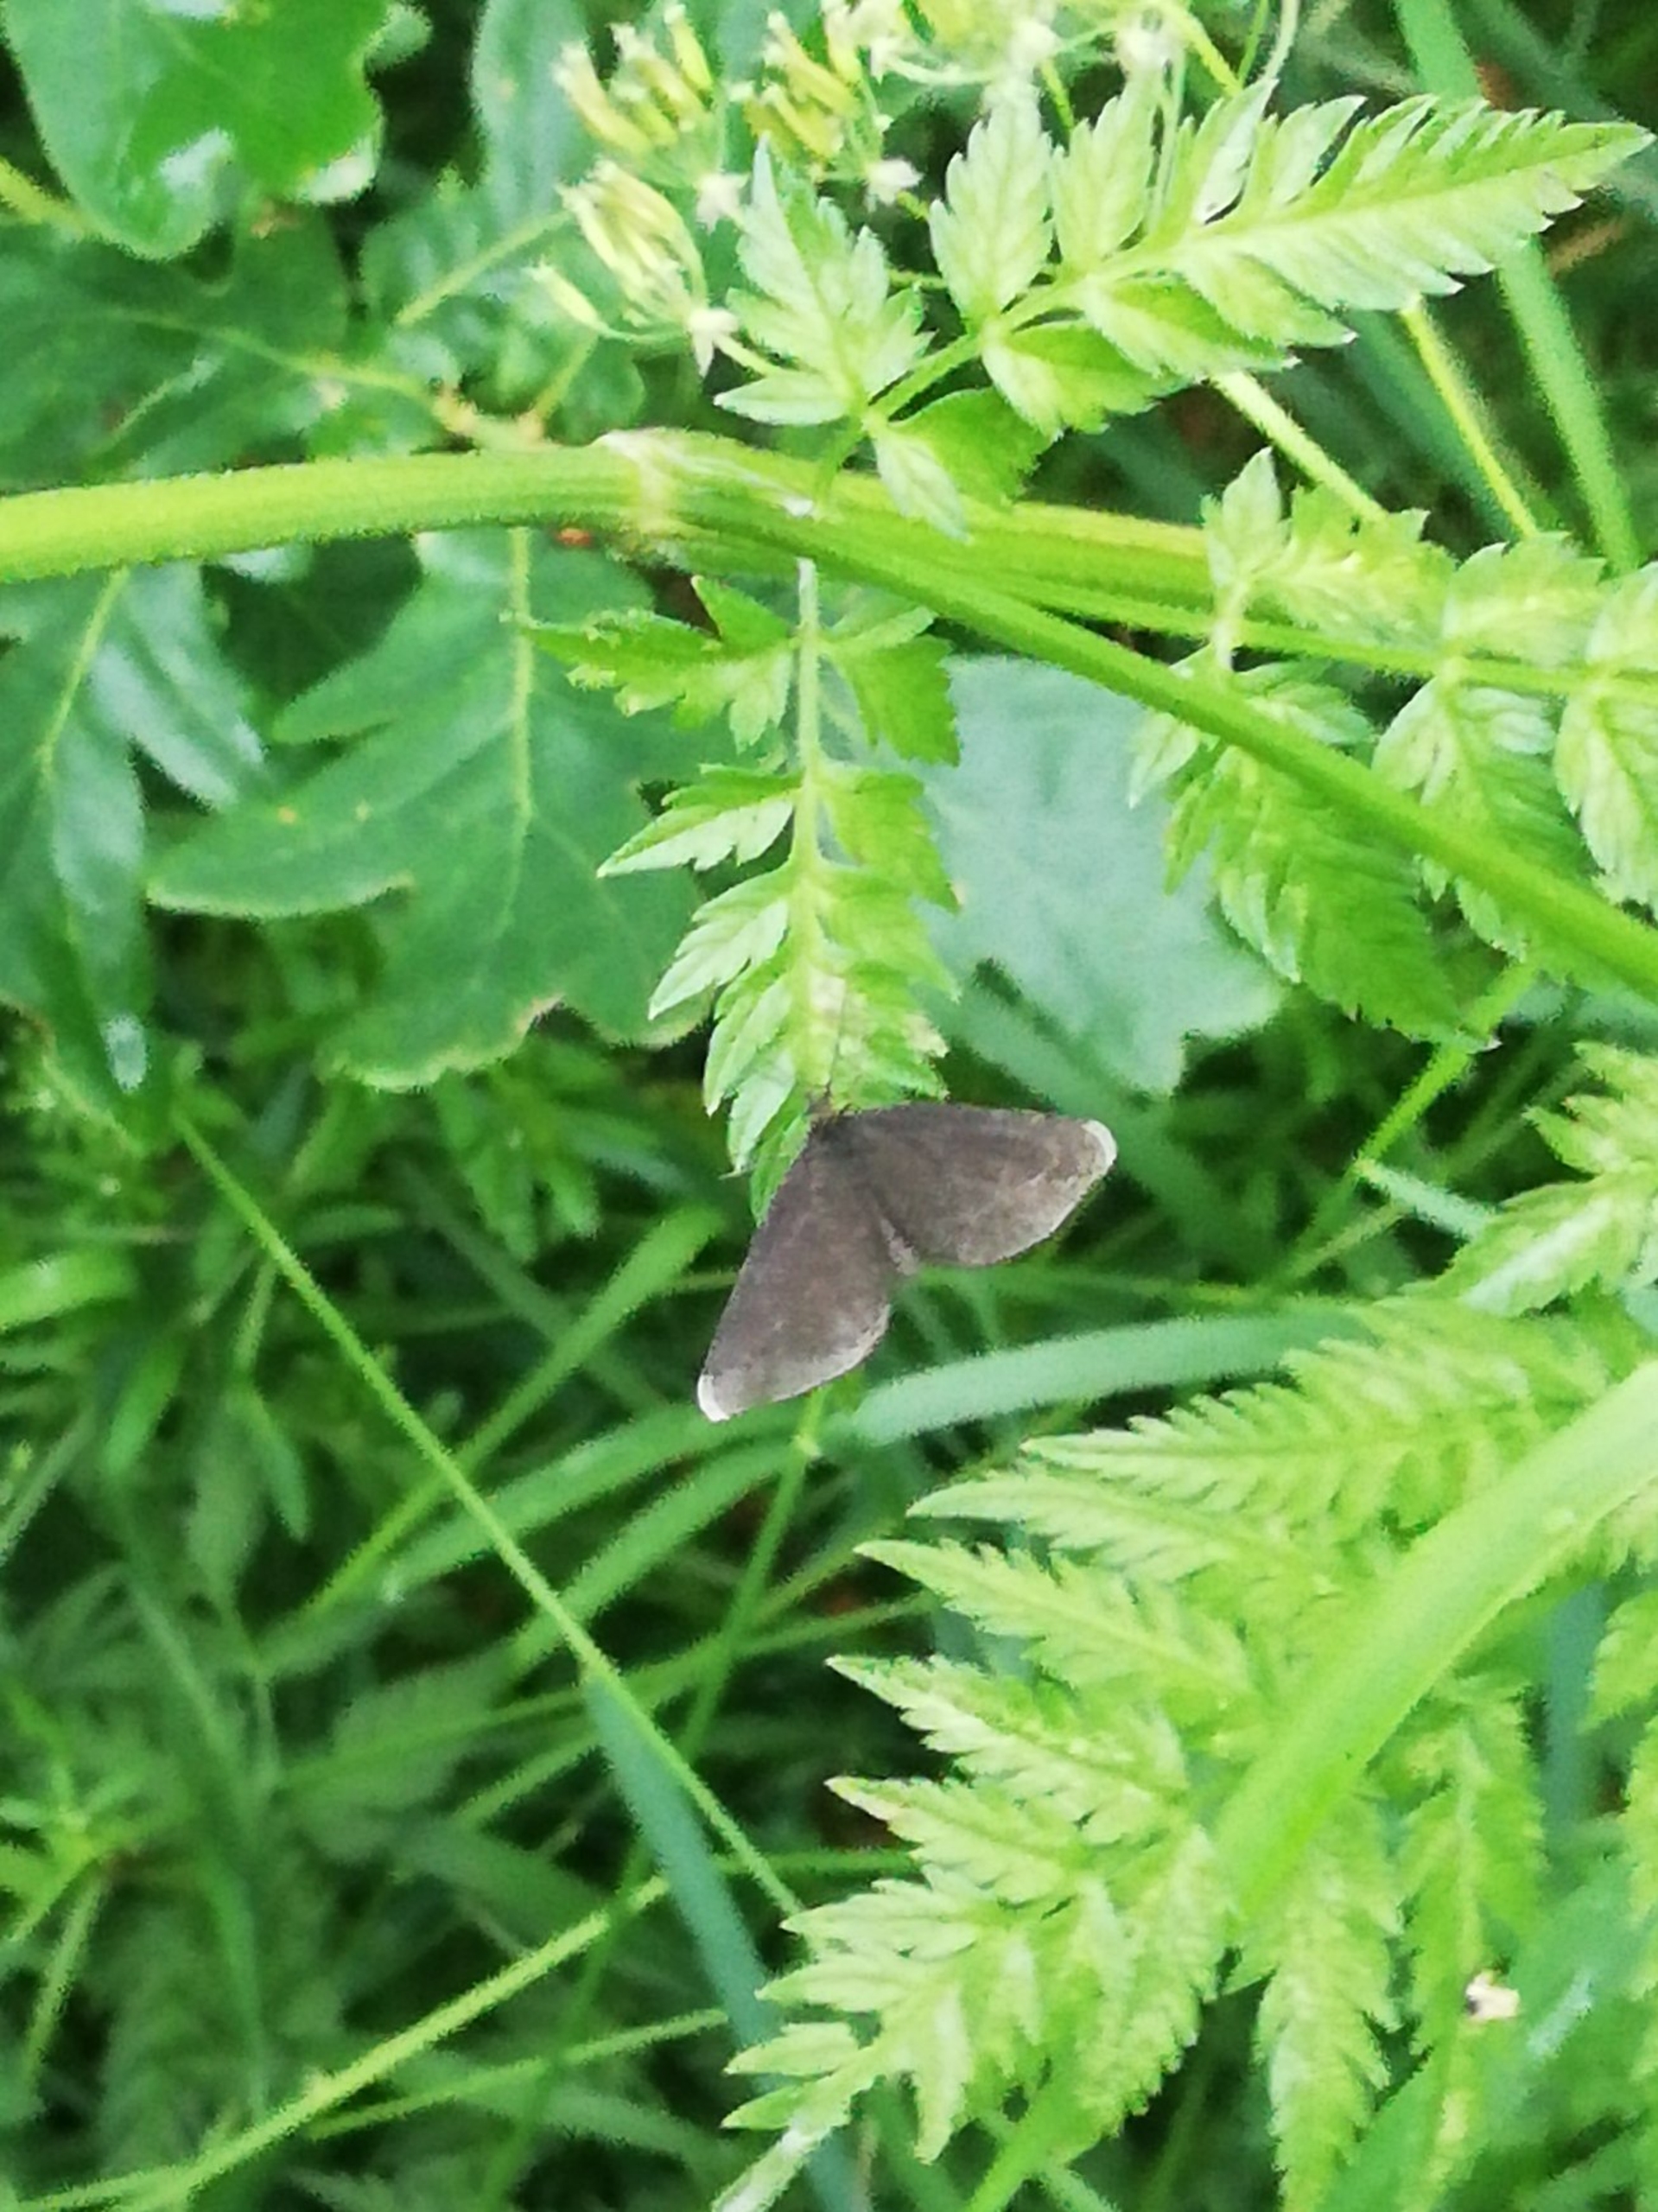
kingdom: Animalia
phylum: Arthropoda
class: Insecta
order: Lepidoptera
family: Geometridae
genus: Odezia
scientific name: Odezia atrata
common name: Sort måler
